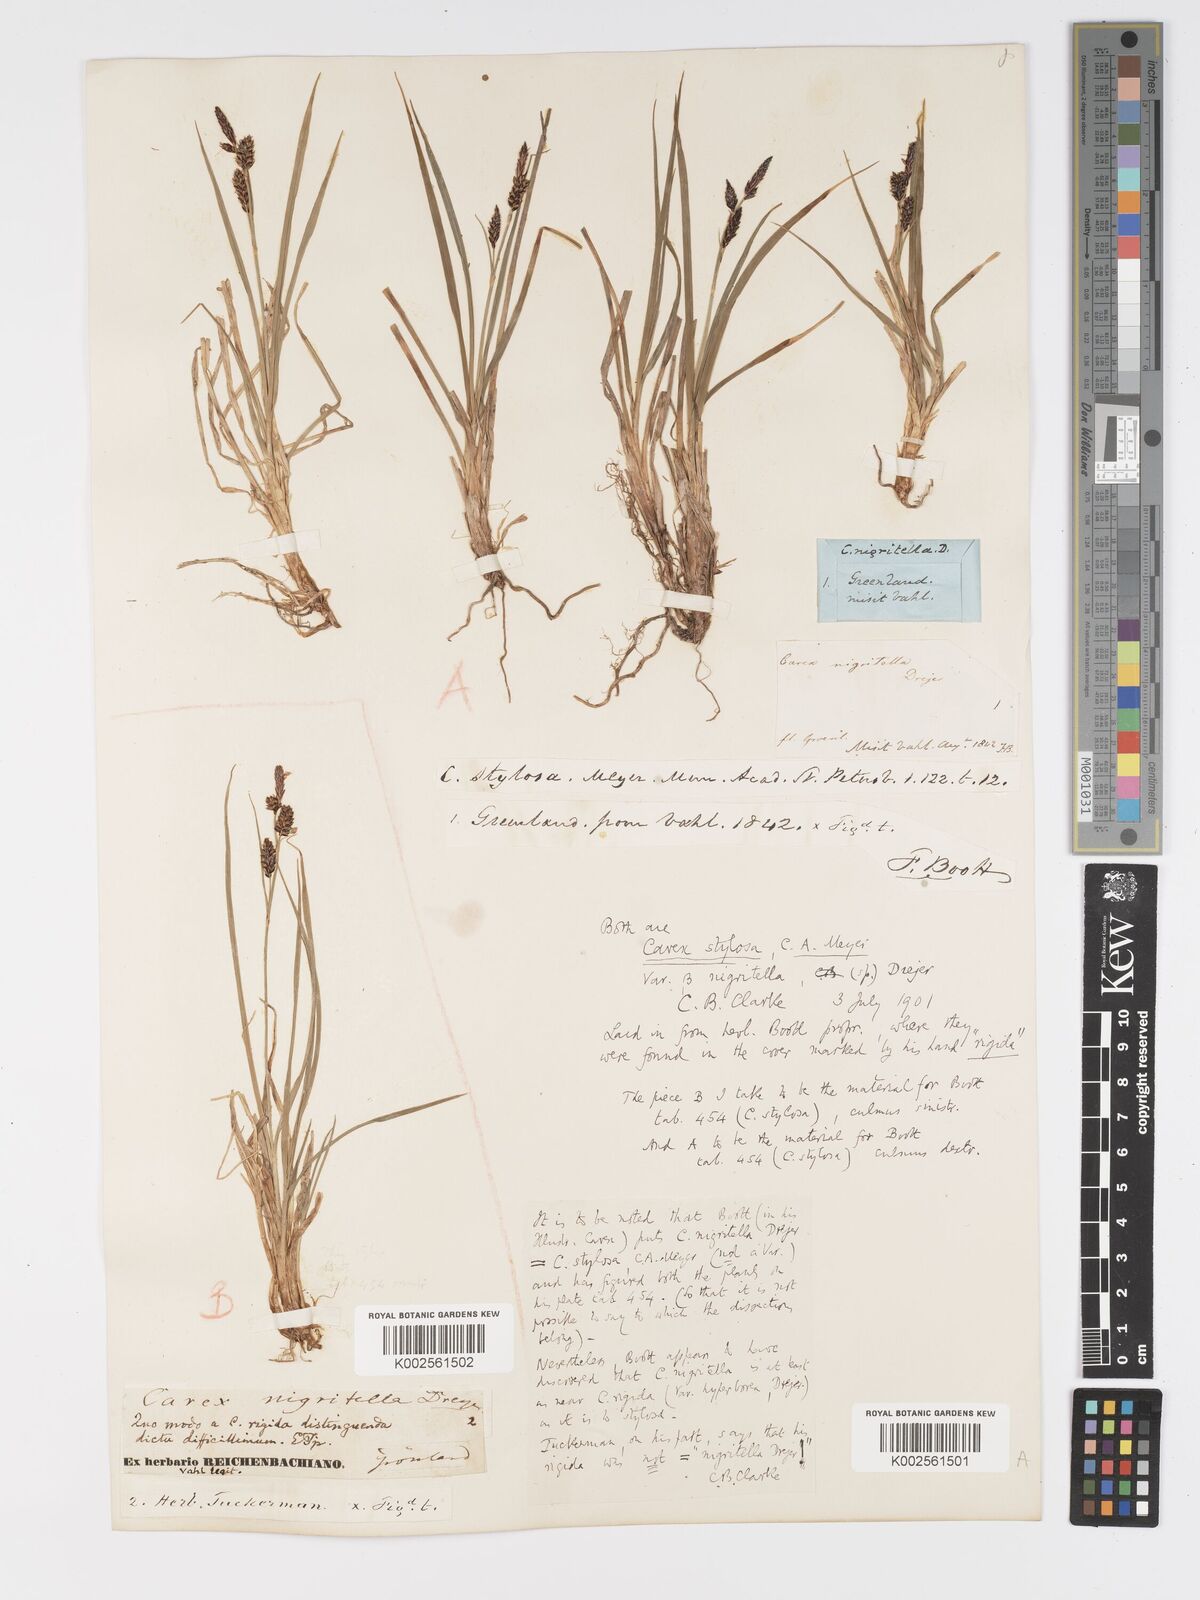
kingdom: Plantae
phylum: Tracheophyta
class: Liliopsida
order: Poales
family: Cyperaceae
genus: Carex
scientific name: Carex stylosa
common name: Long-styled sedge
